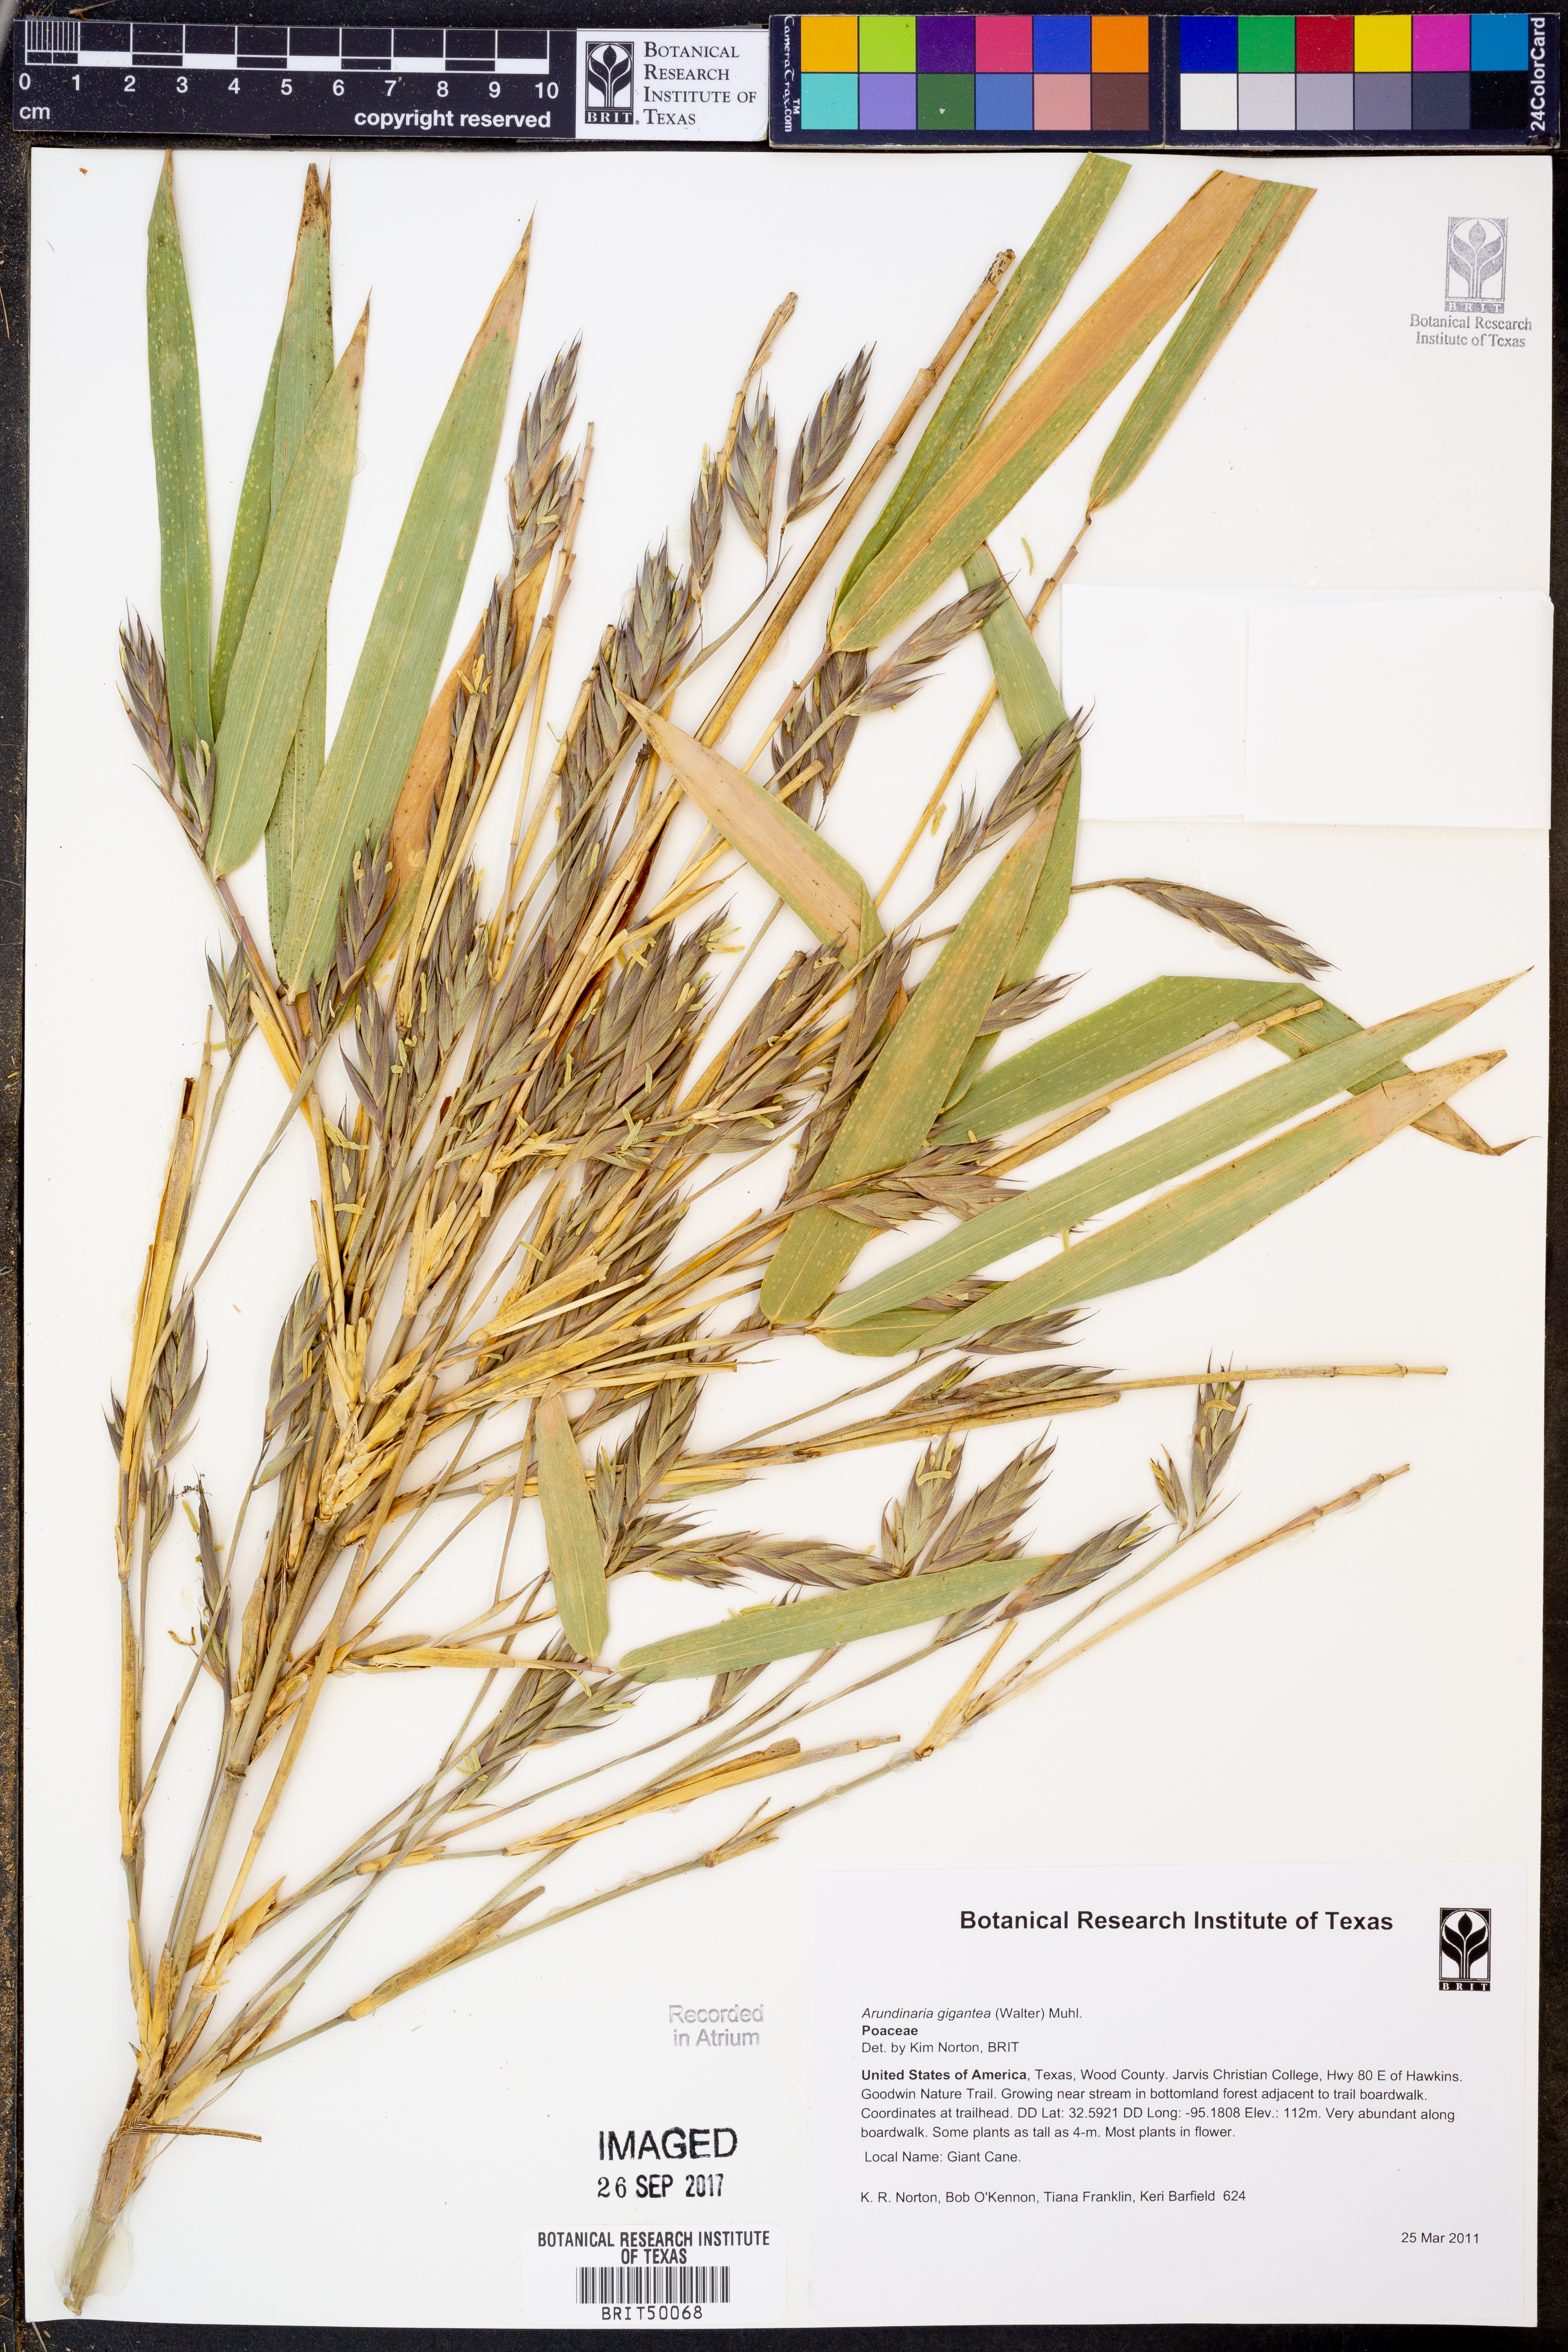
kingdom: Plantae
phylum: Tracheophyta
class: Liliopsida
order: Poales
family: Poaceae
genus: Arundinaria
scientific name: Arundinaria gigantea
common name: Giant cane
